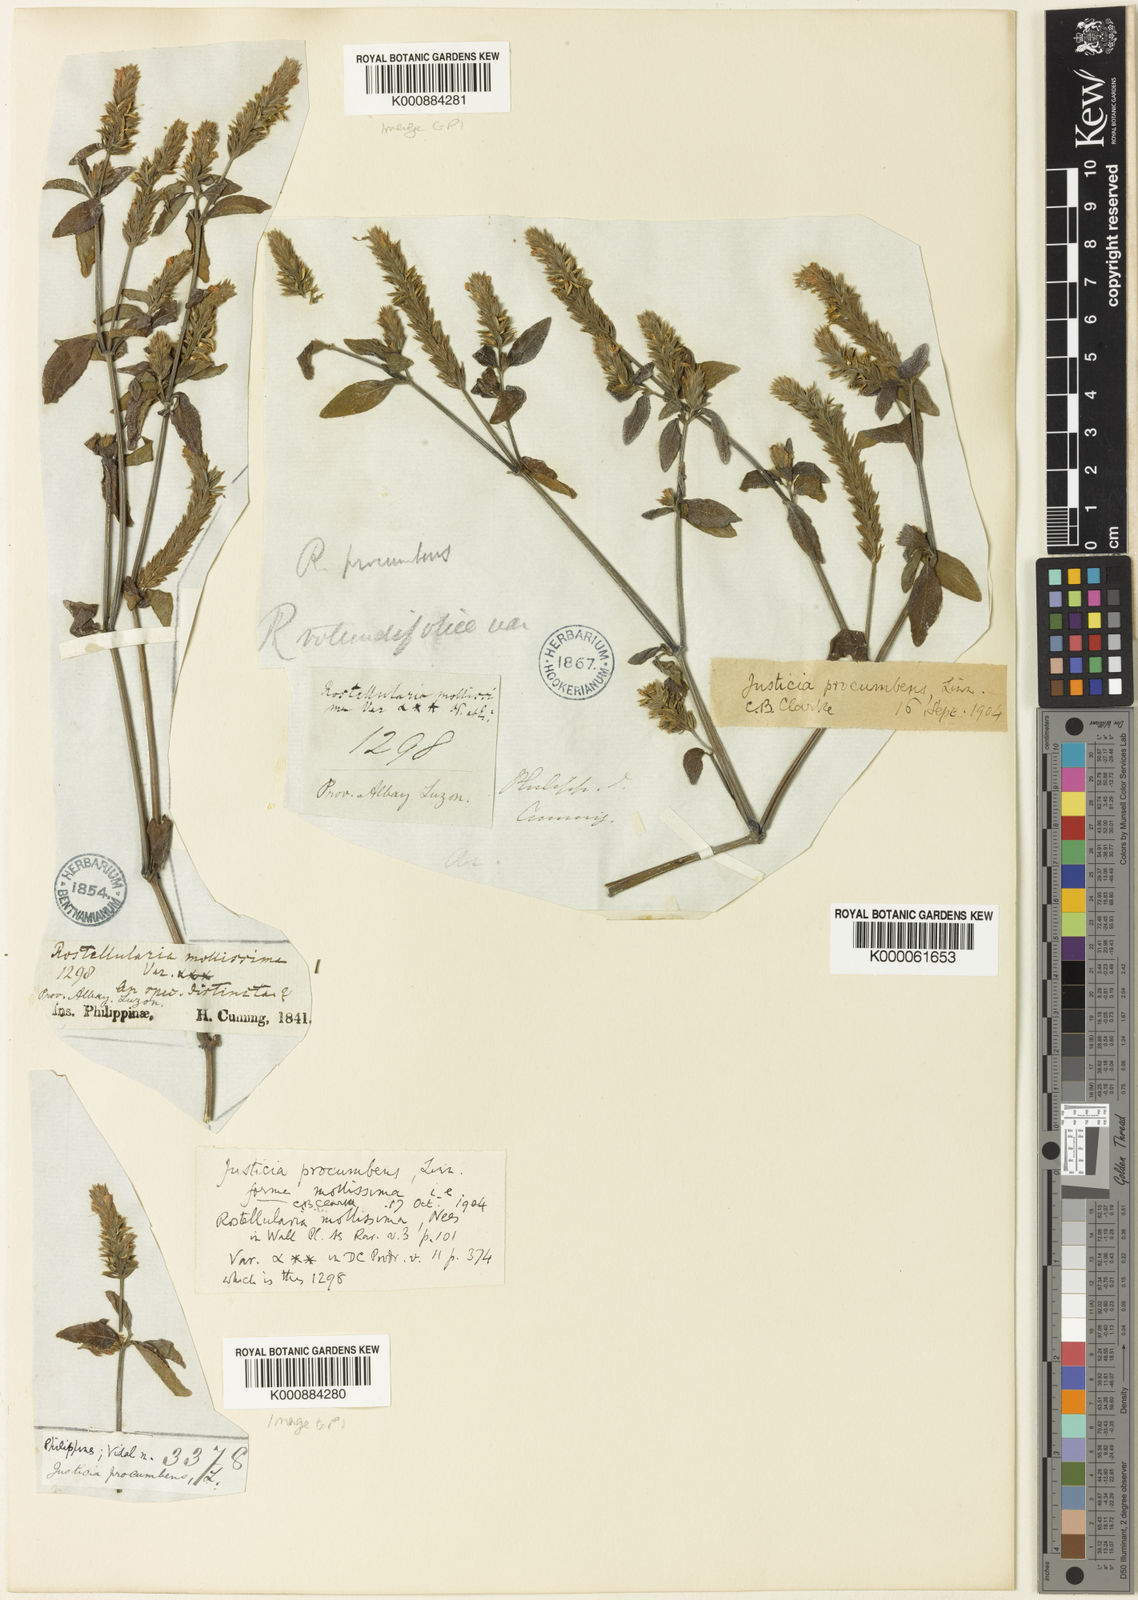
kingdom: Plantae
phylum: Tracheophyta
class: Magnoliopsida
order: Lamiales
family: Acanthaceae
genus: Rostellularia
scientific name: Rostellularia procumbens
